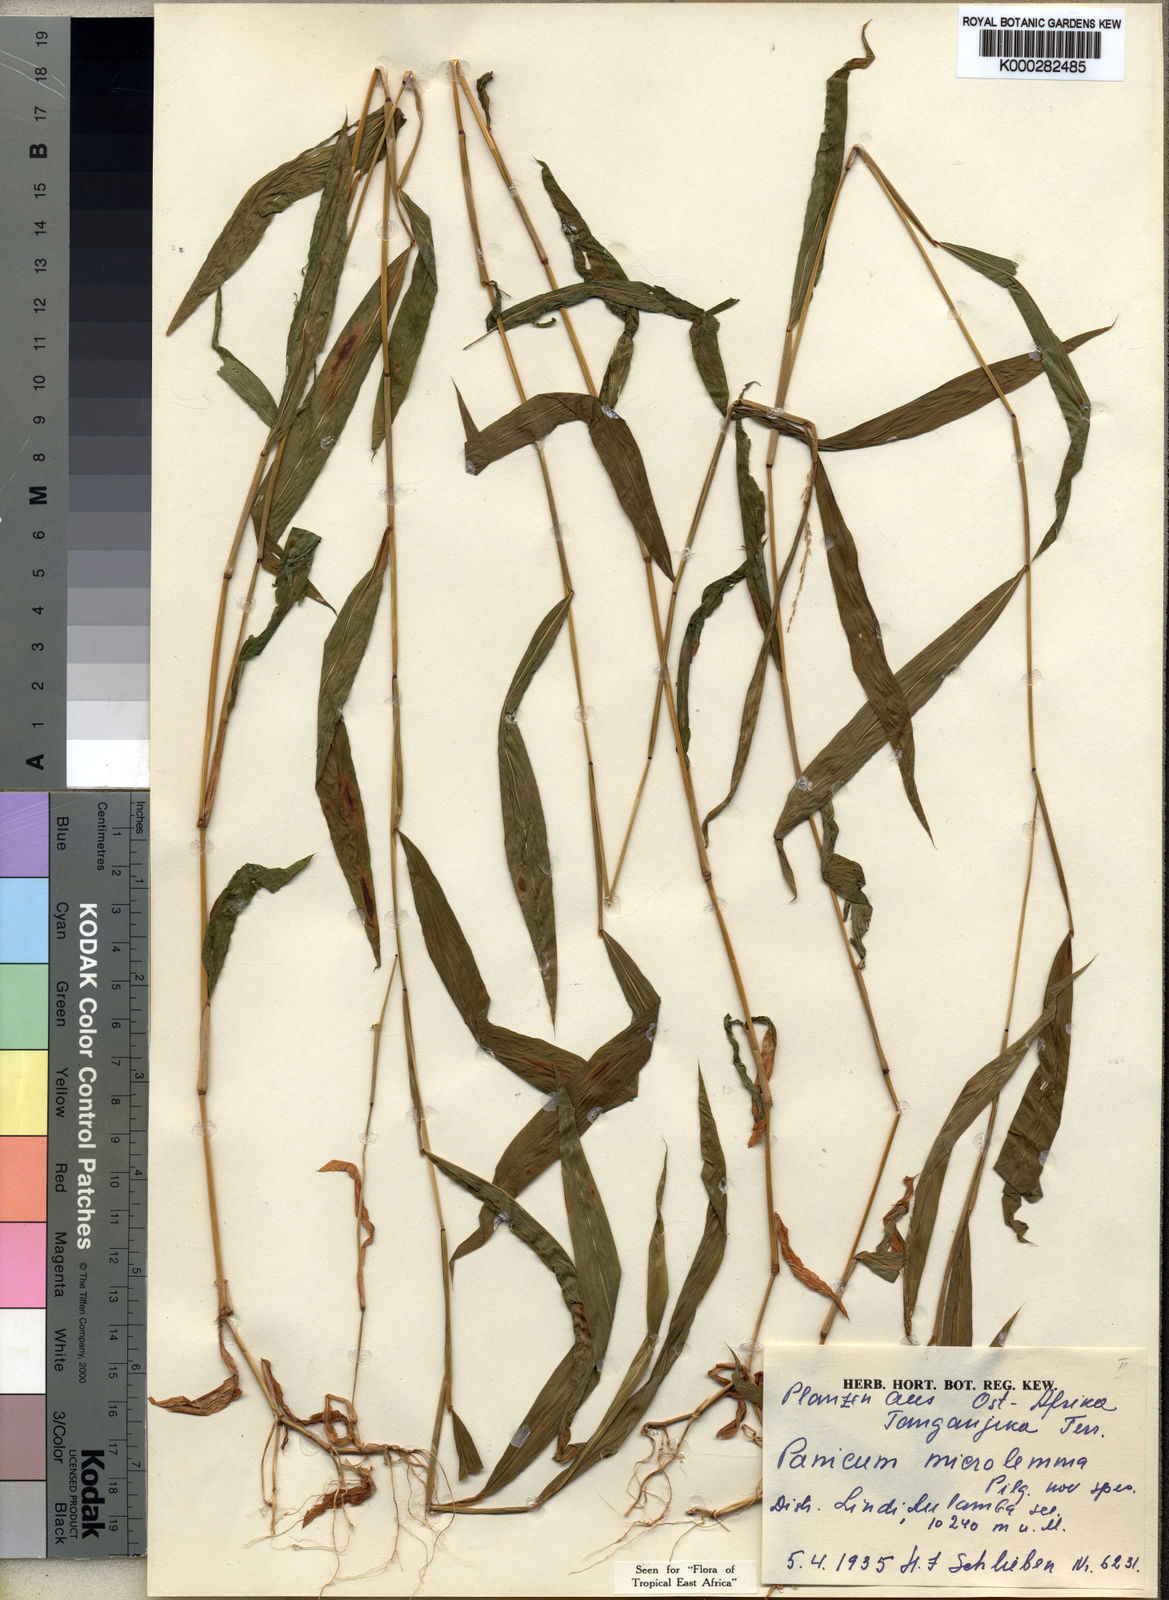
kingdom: Plantae
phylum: Tracheophyta
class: Liliopsida
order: Poales
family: Poaceae
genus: Panicum
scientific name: Panicum comorense
